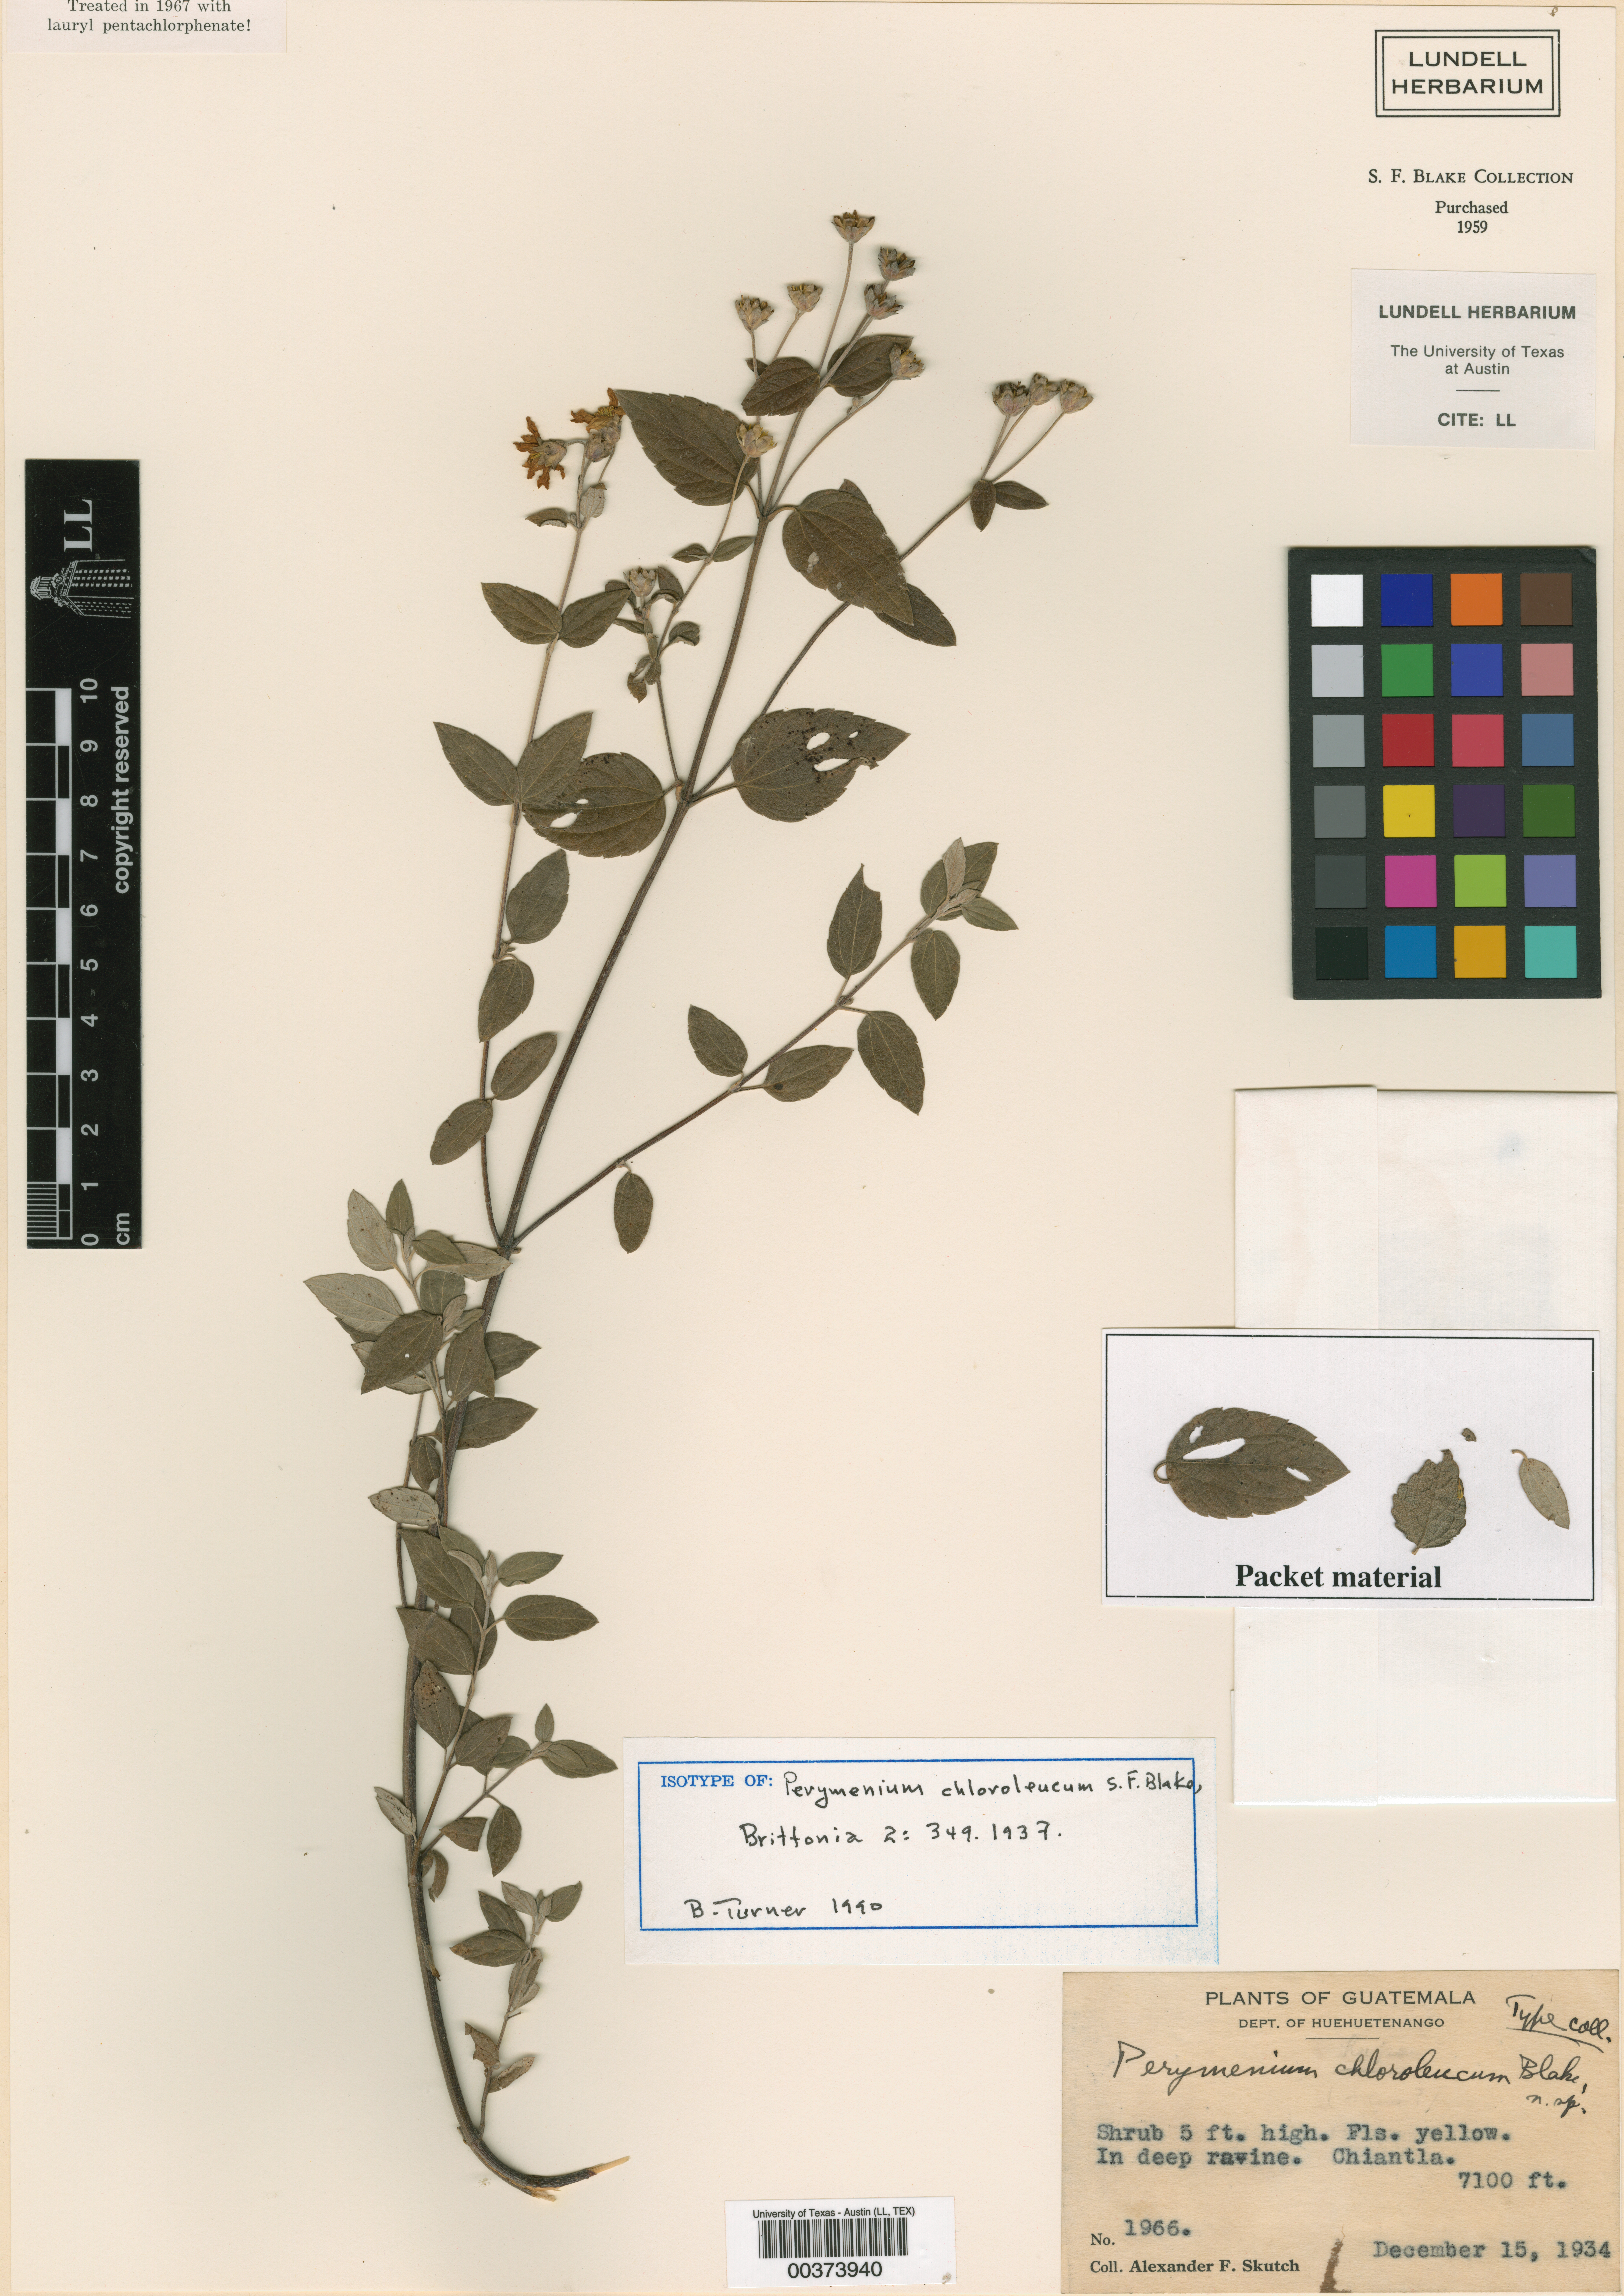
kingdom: Plantae
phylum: Tracheophyta
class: Magnoliopsida
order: Asterales
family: Asteraceae
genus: Perymenium
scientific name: Perymenium chloroleucum
